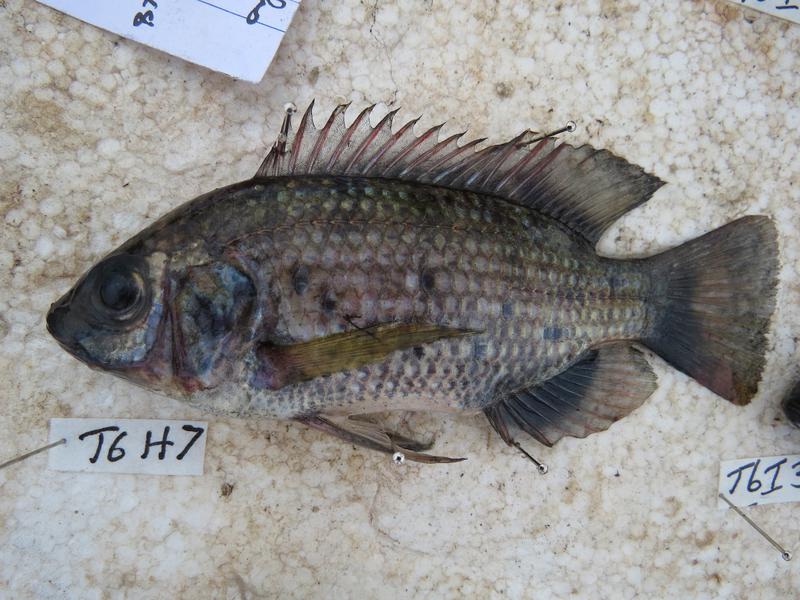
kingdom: Animalia
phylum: Chordata
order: Perciformes
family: Cichlidae
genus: Oreochromis
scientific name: Oreochromis leucostictus
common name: Blue spotted tilapia
